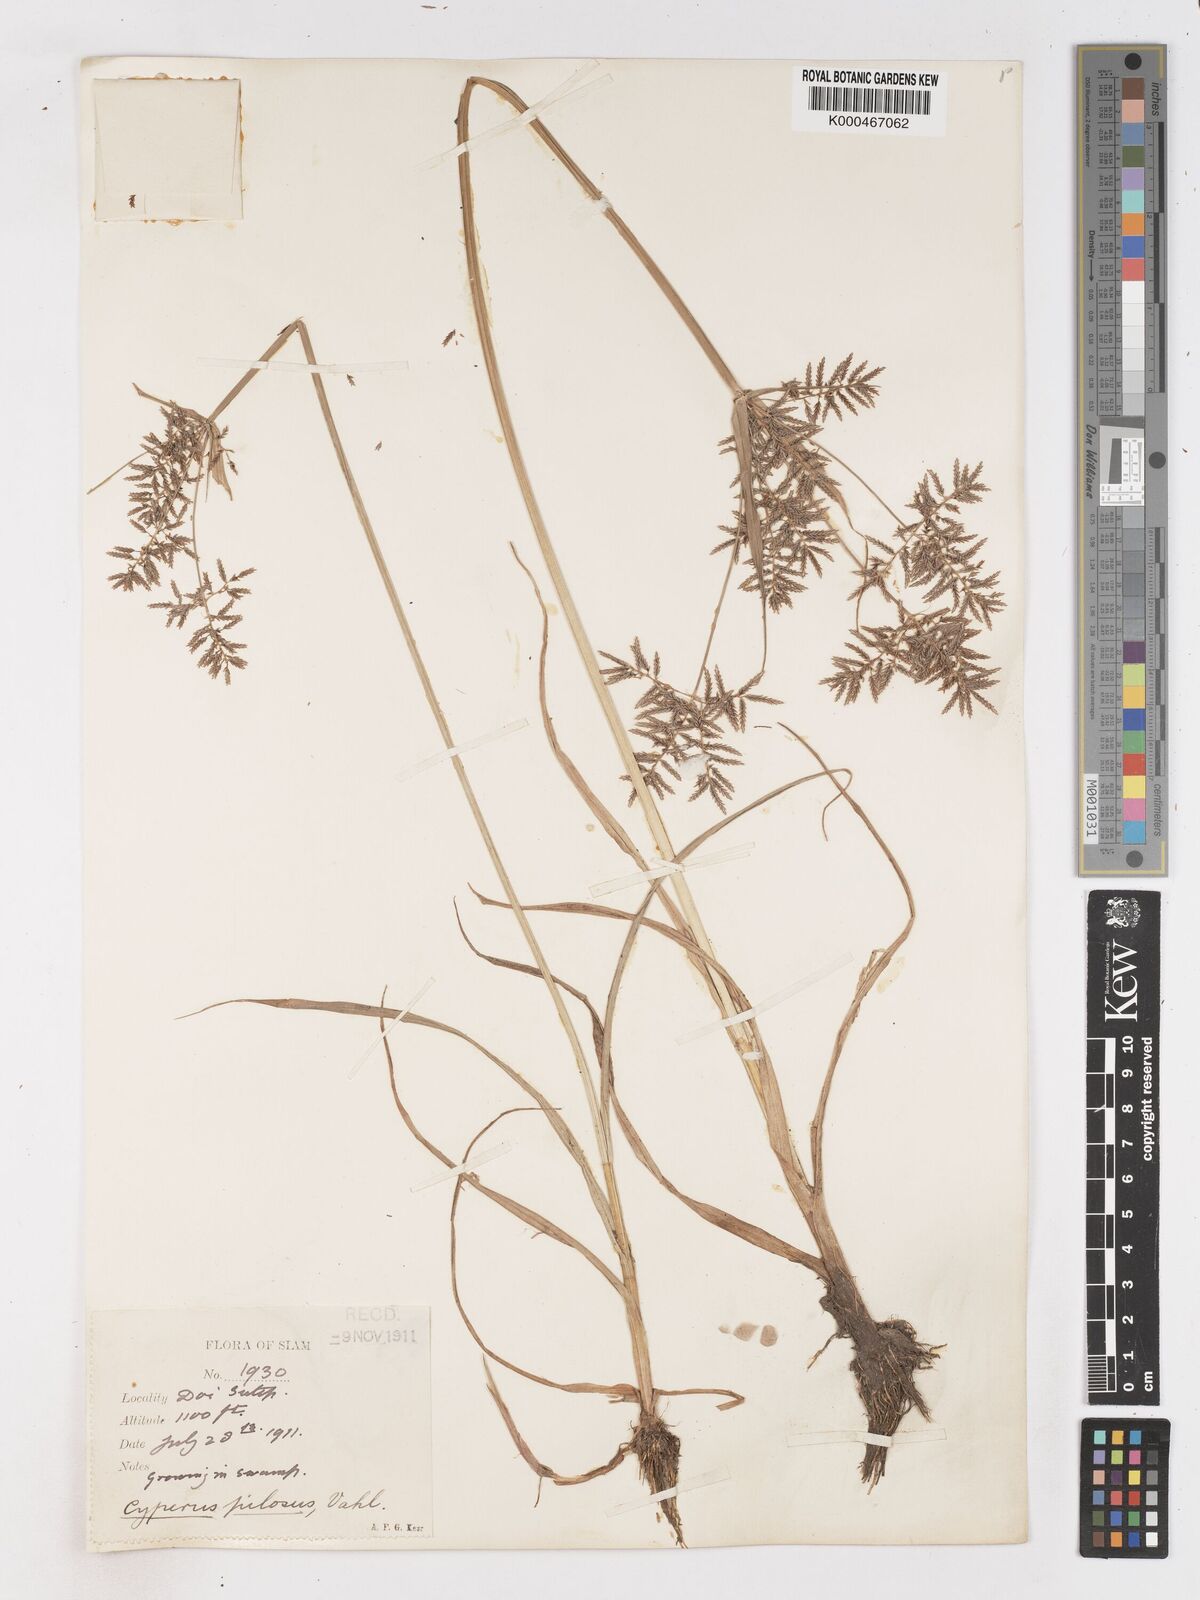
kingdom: Plantae
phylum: Tracheophyta
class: Liliopsida
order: Poales
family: Cyperaceae
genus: Cyperus
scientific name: Cyperus pilosus
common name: Fuzzy flatsedge
